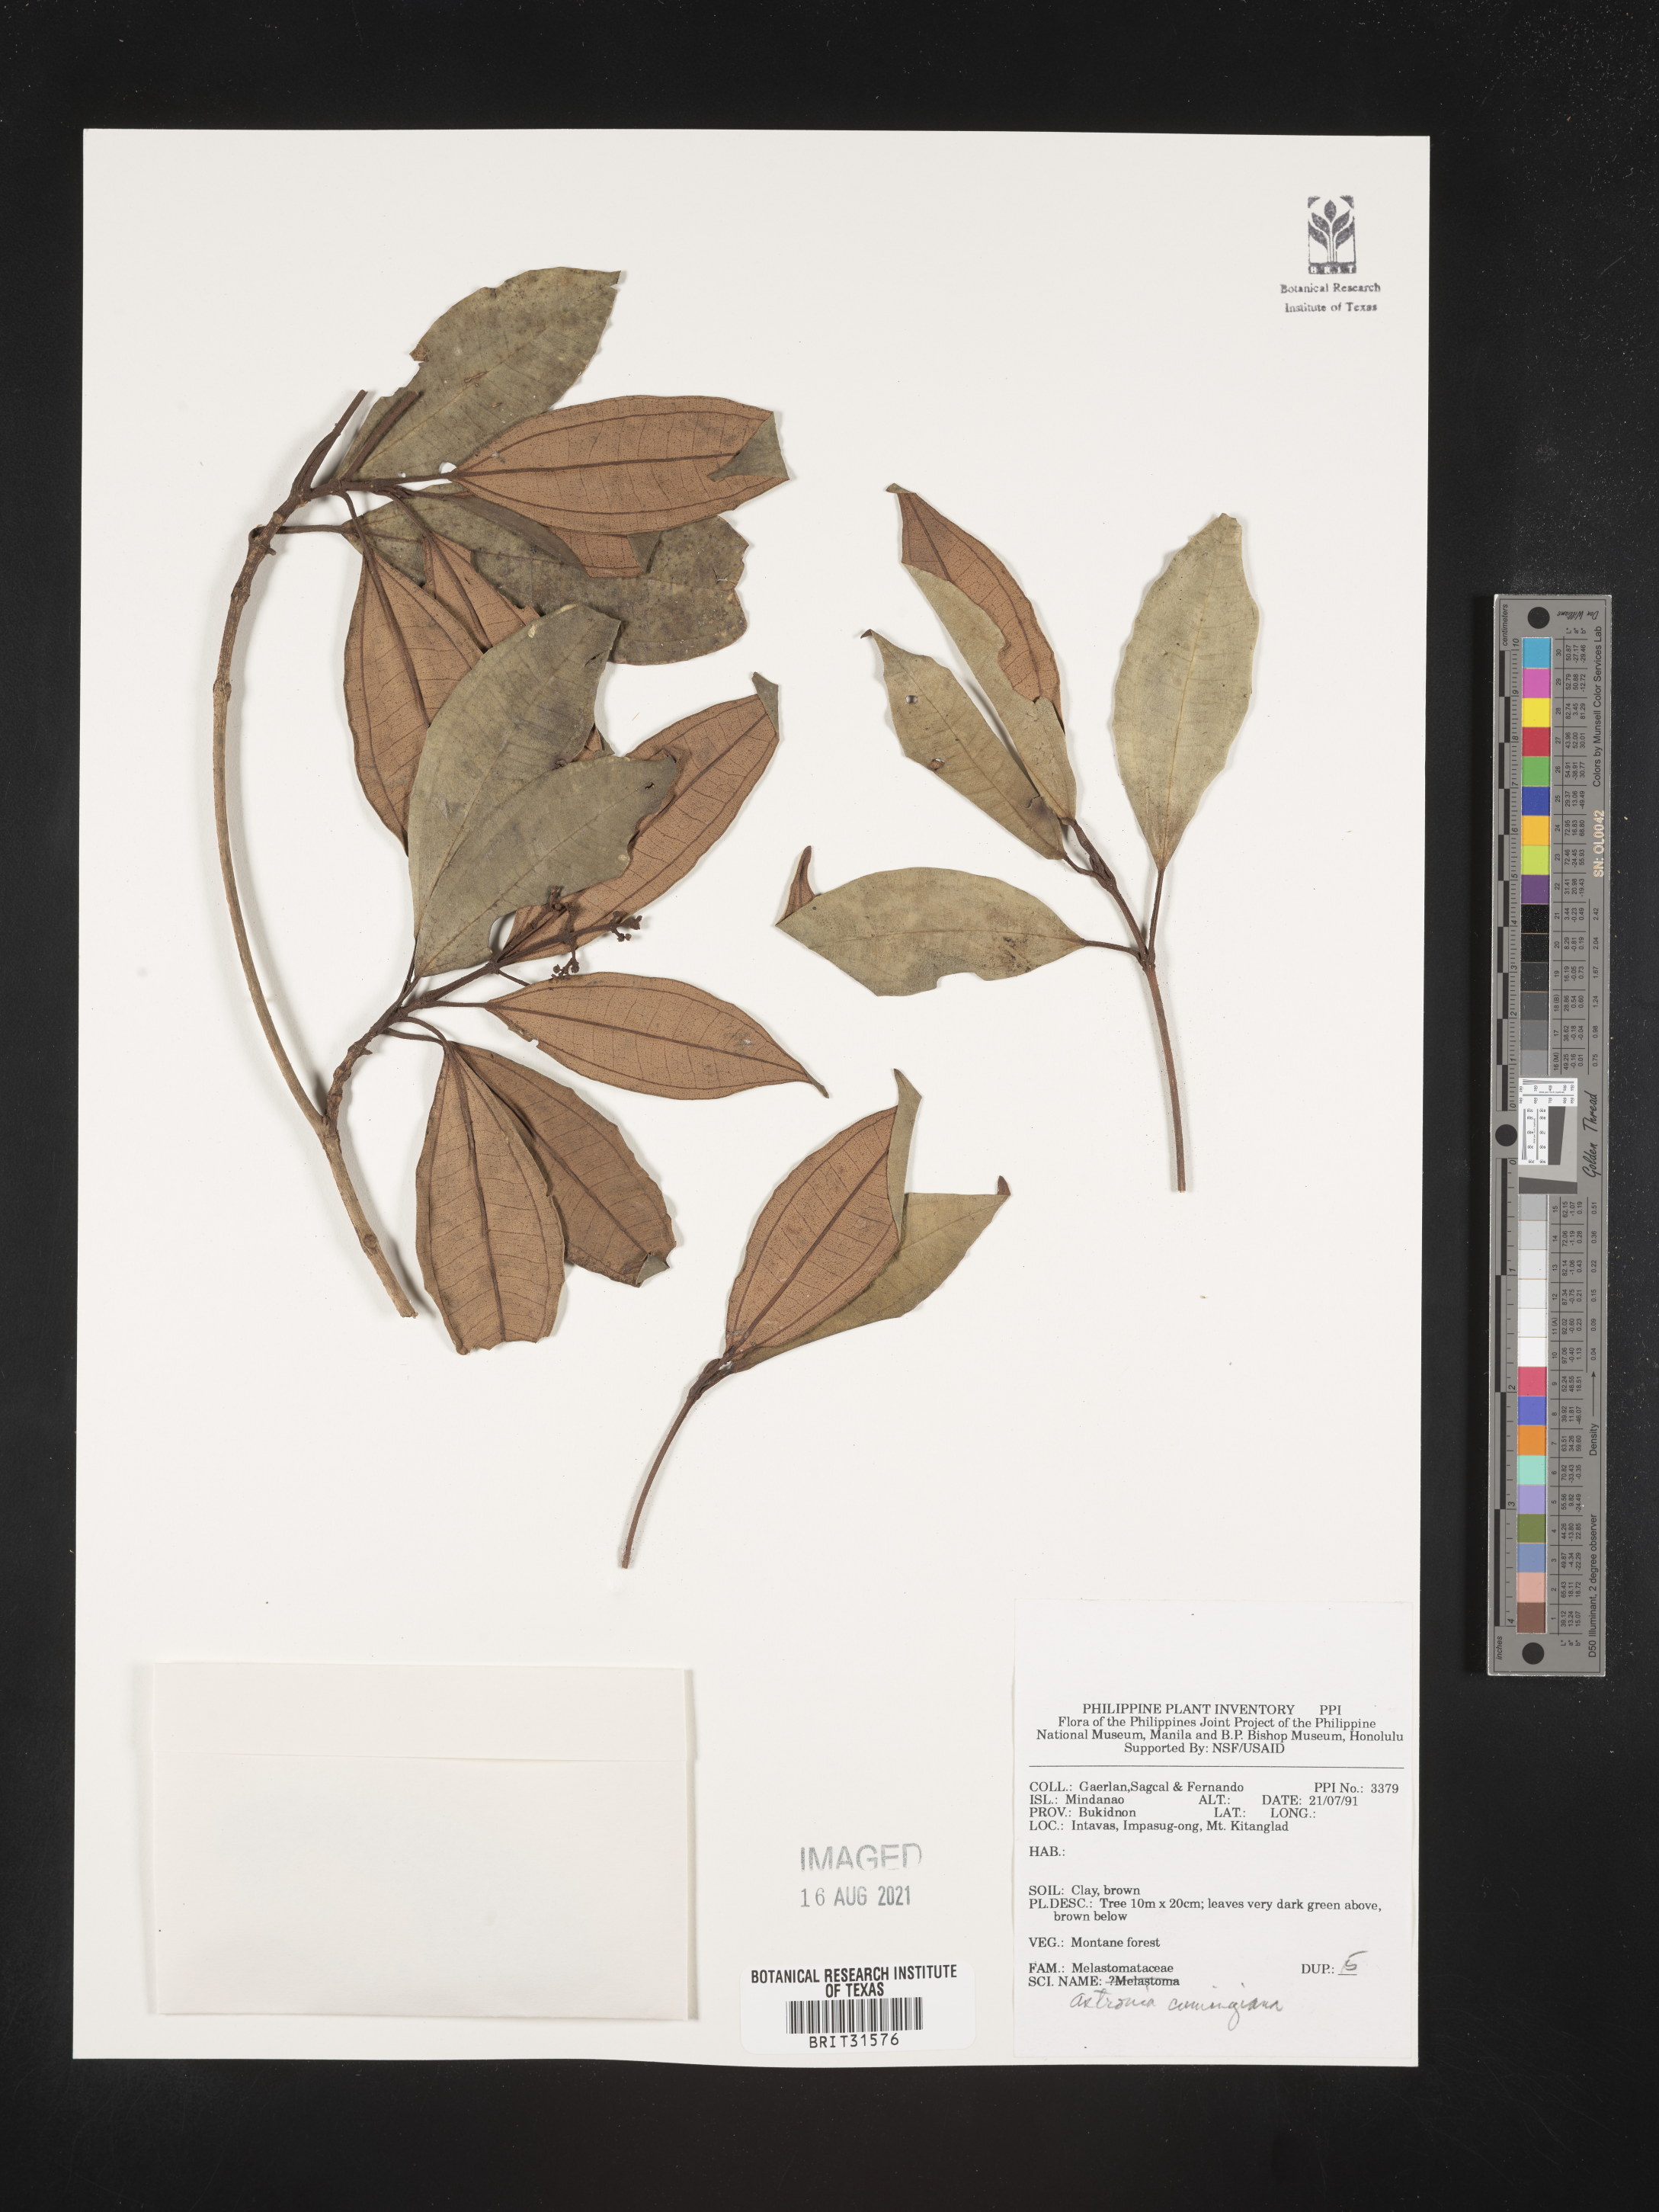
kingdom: Plantae
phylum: Tracheophyta
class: Magnoliopsida
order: Myrtales
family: Melastomataceae
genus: Astronia
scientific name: Astronia cumingiana
